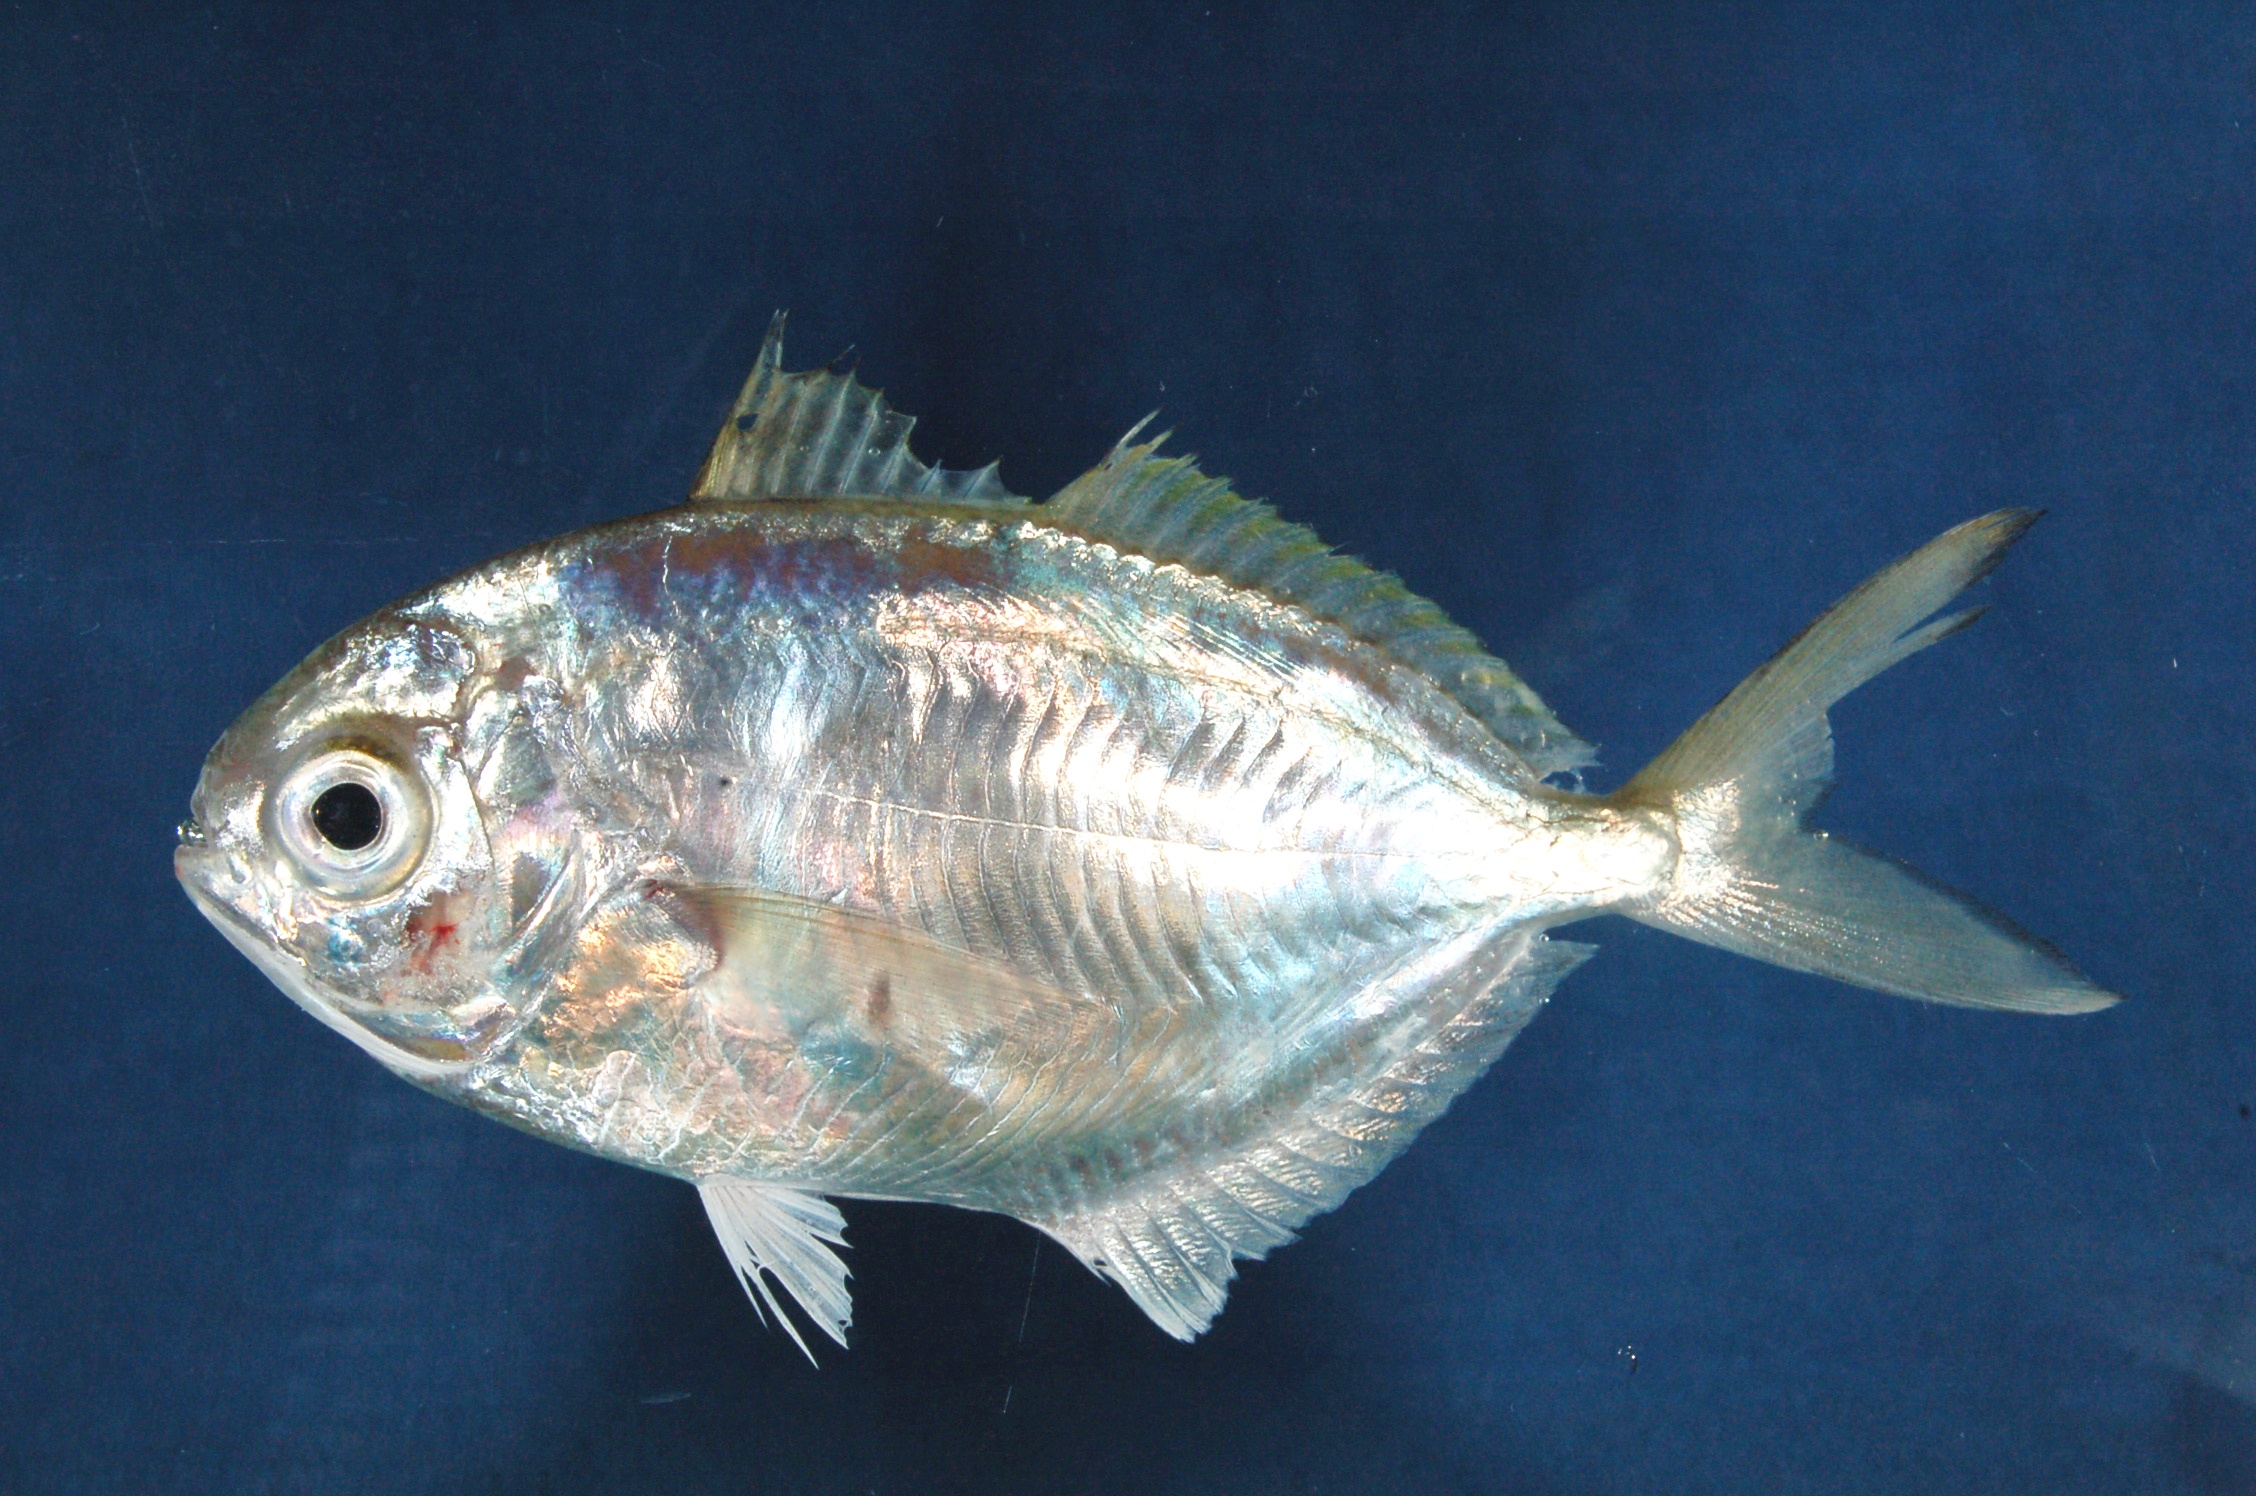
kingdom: Animalia
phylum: Chordata
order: Perciformes
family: Ariommatidae
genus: Ariomma
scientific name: Ariomma indicum
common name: Indian driftfish
